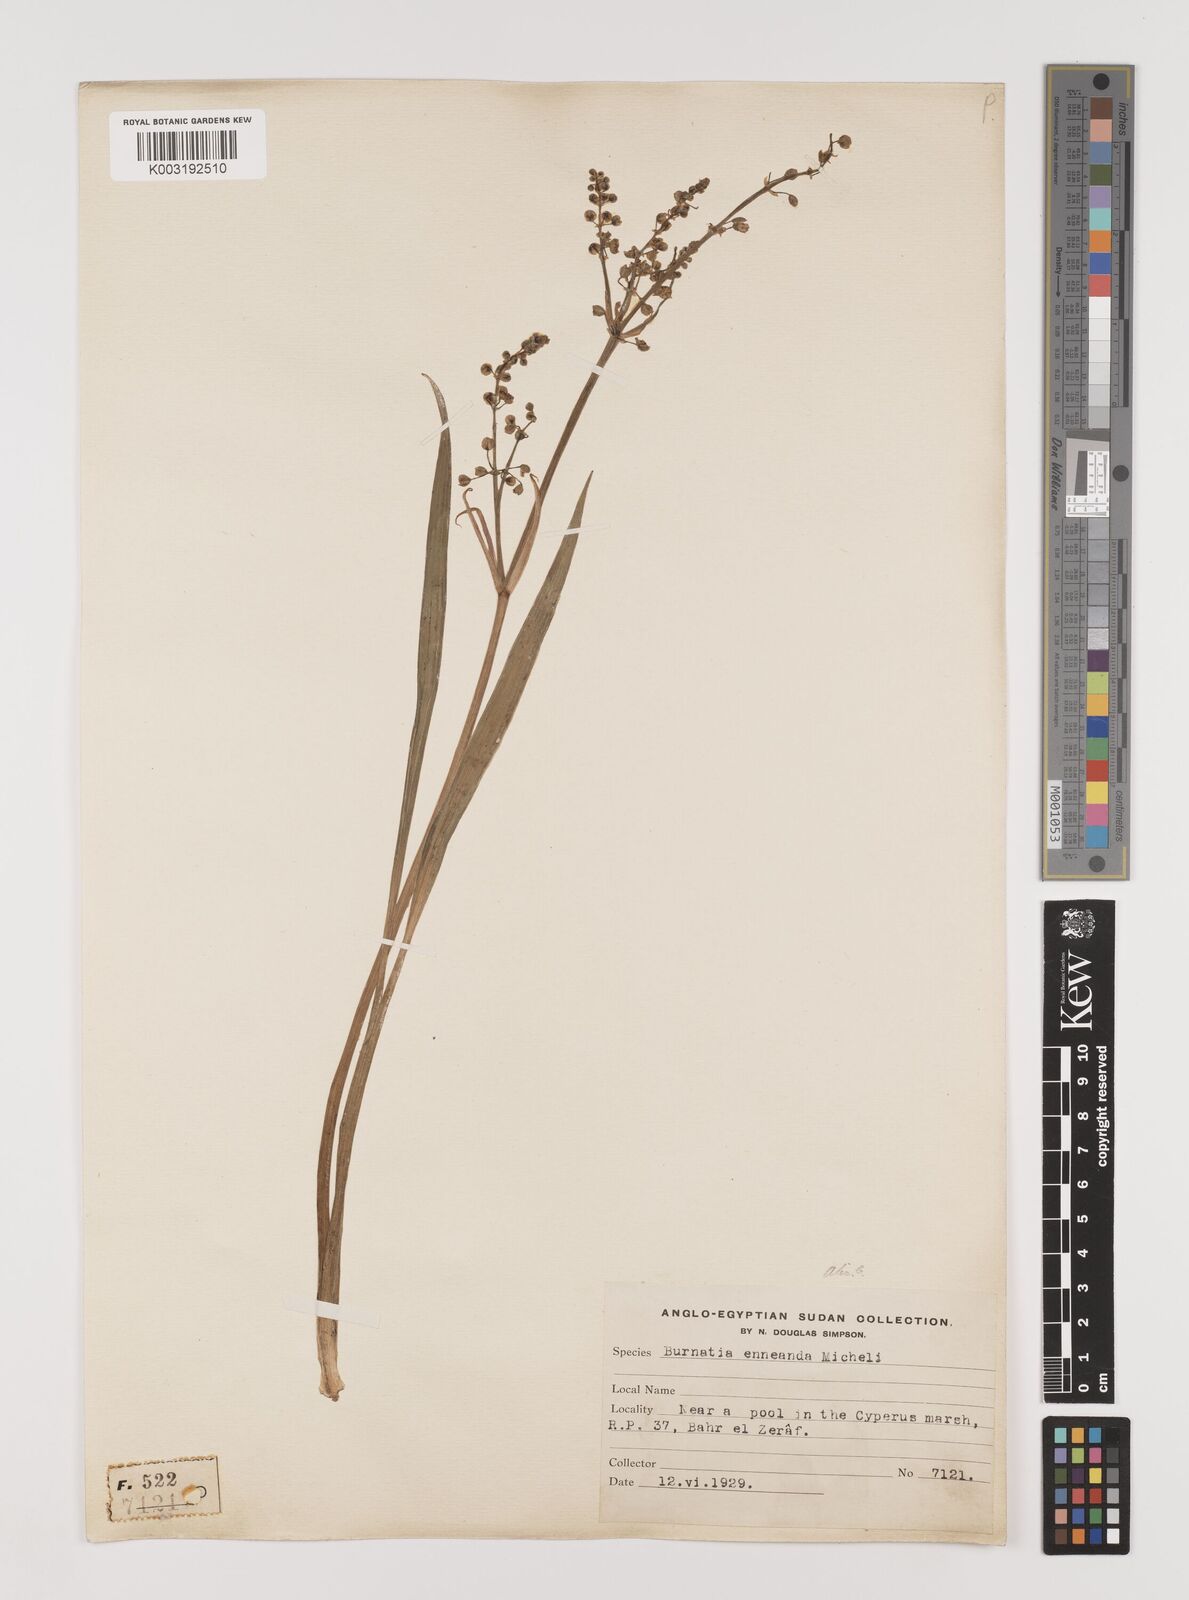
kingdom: Plantae
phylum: Tracheophyta
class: Liliopsida
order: Alismatales
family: Alismataceae
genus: Burnatia
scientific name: Burnatia enneandra
